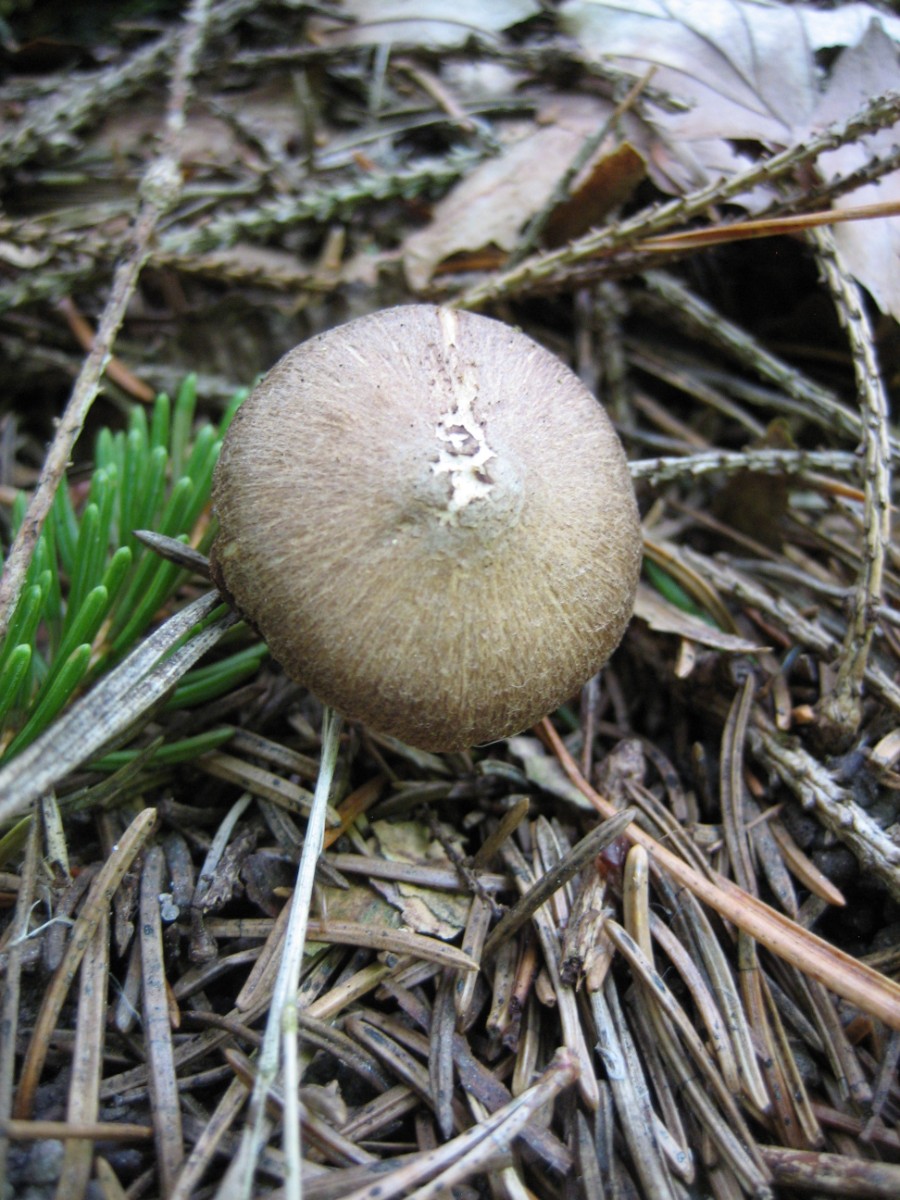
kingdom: Fungi
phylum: Basidiomycota
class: Agaricomycetes
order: Agaricales
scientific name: Agaricales
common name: champignonordenen
